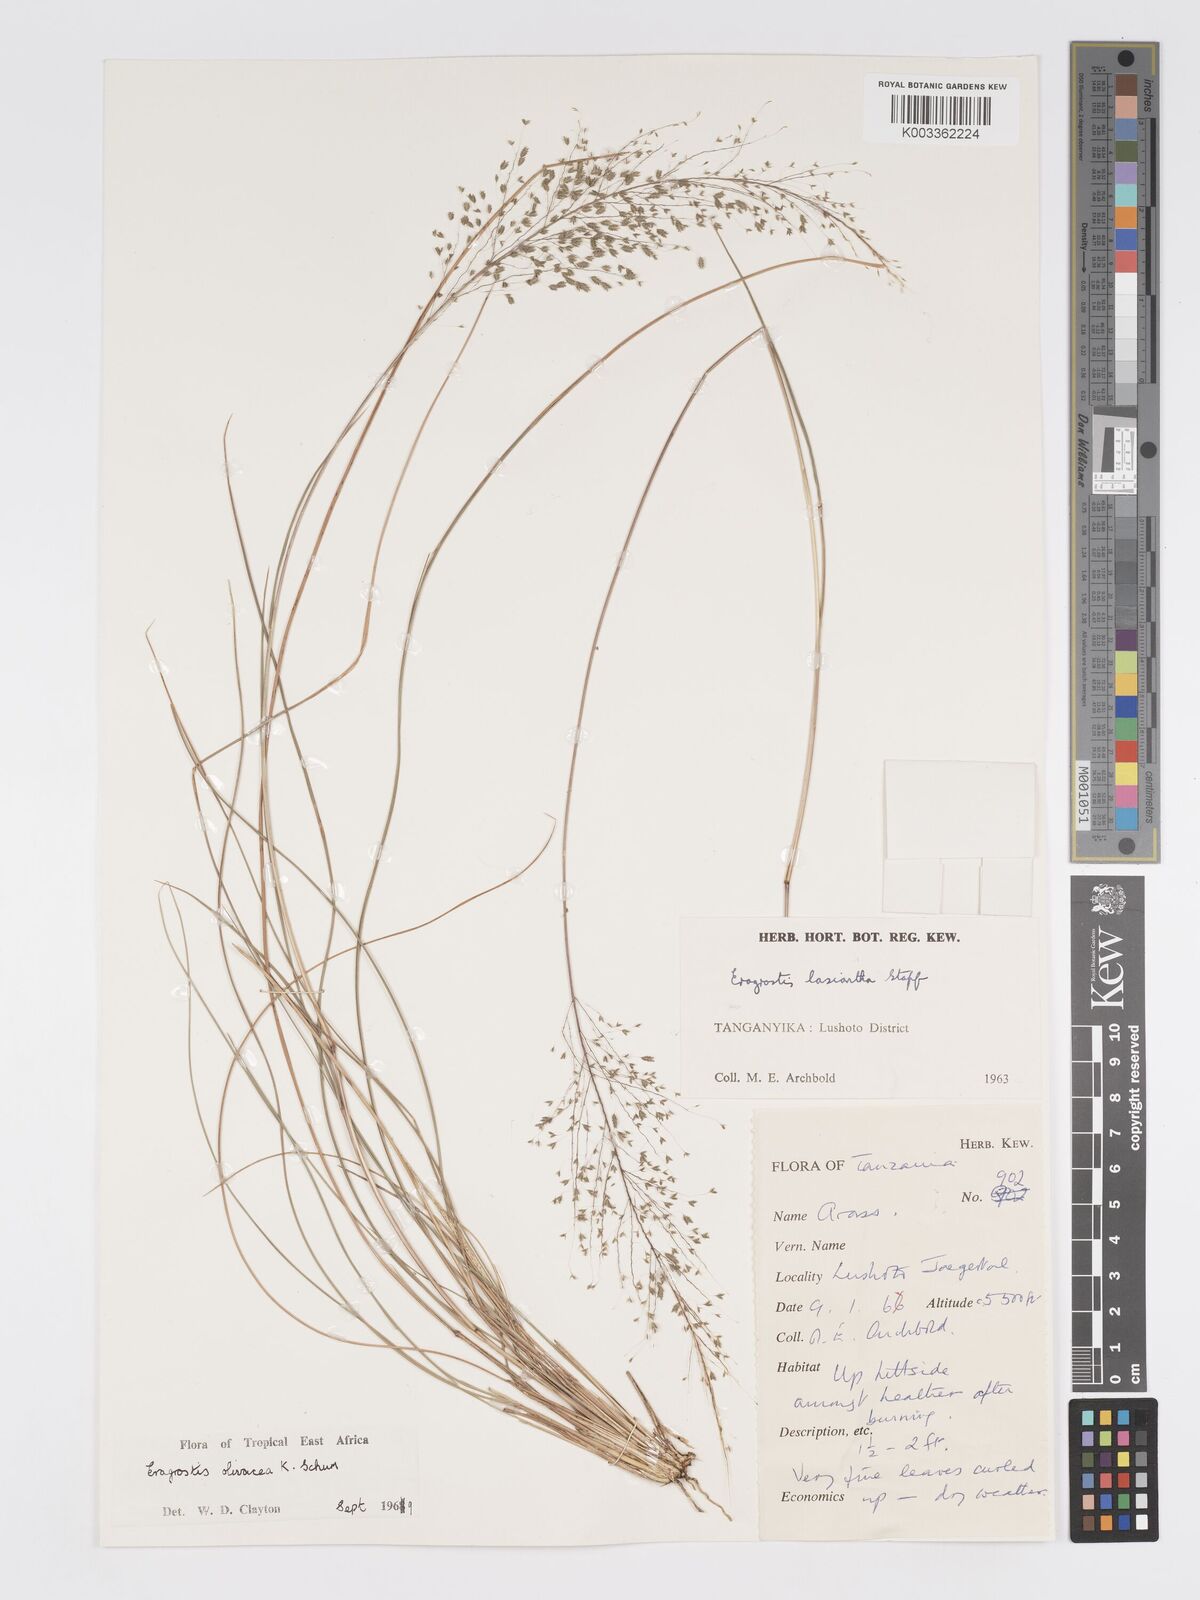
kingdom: Plantae
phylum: Tracheophyta
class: Liliopsida
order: Poales
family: Poaceae
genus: Eragrostis
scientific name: Eragrostis olivacea
